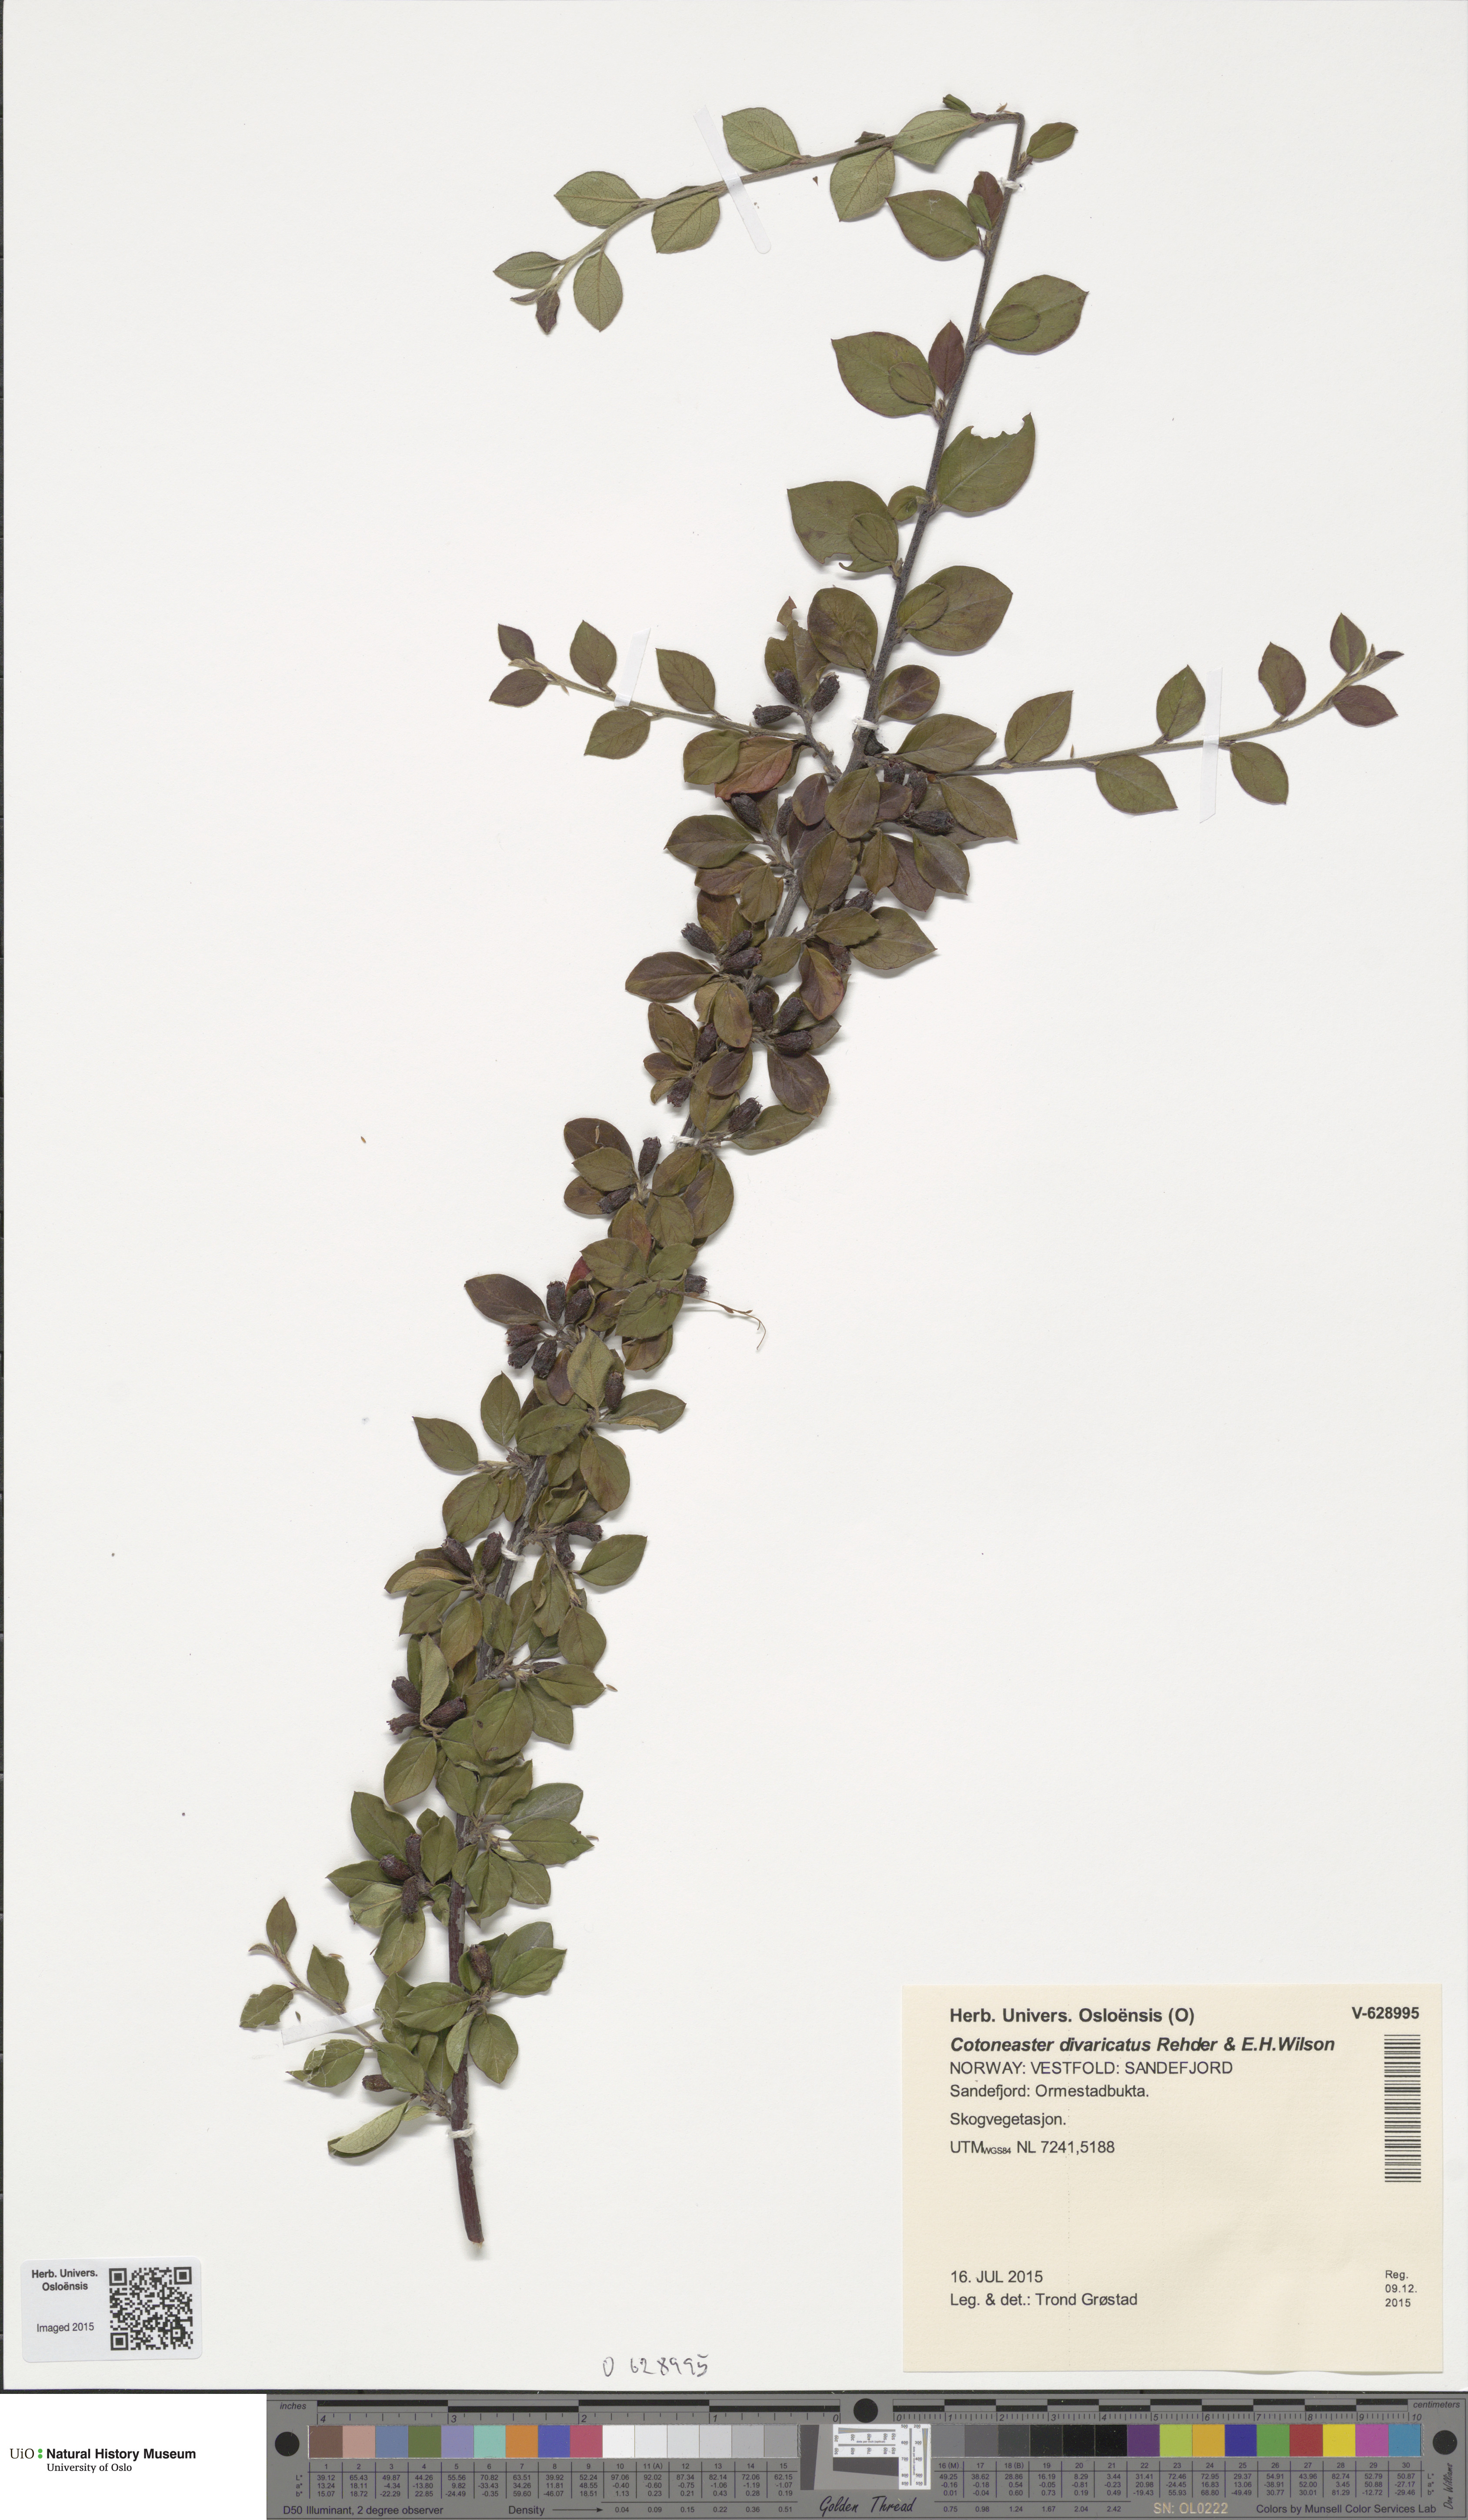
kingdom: Plantae
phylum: Tracheophyta
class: Magnoliopsida
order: Rosales
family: Rosaceae
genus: Cotoneaster
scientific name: Cotoneaster divaricatus
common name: Spreading cotoneaster
